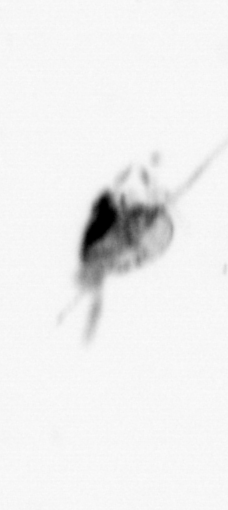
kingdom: Animalia
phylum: Arthropoda
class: Copepoda
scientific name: Copepoda
